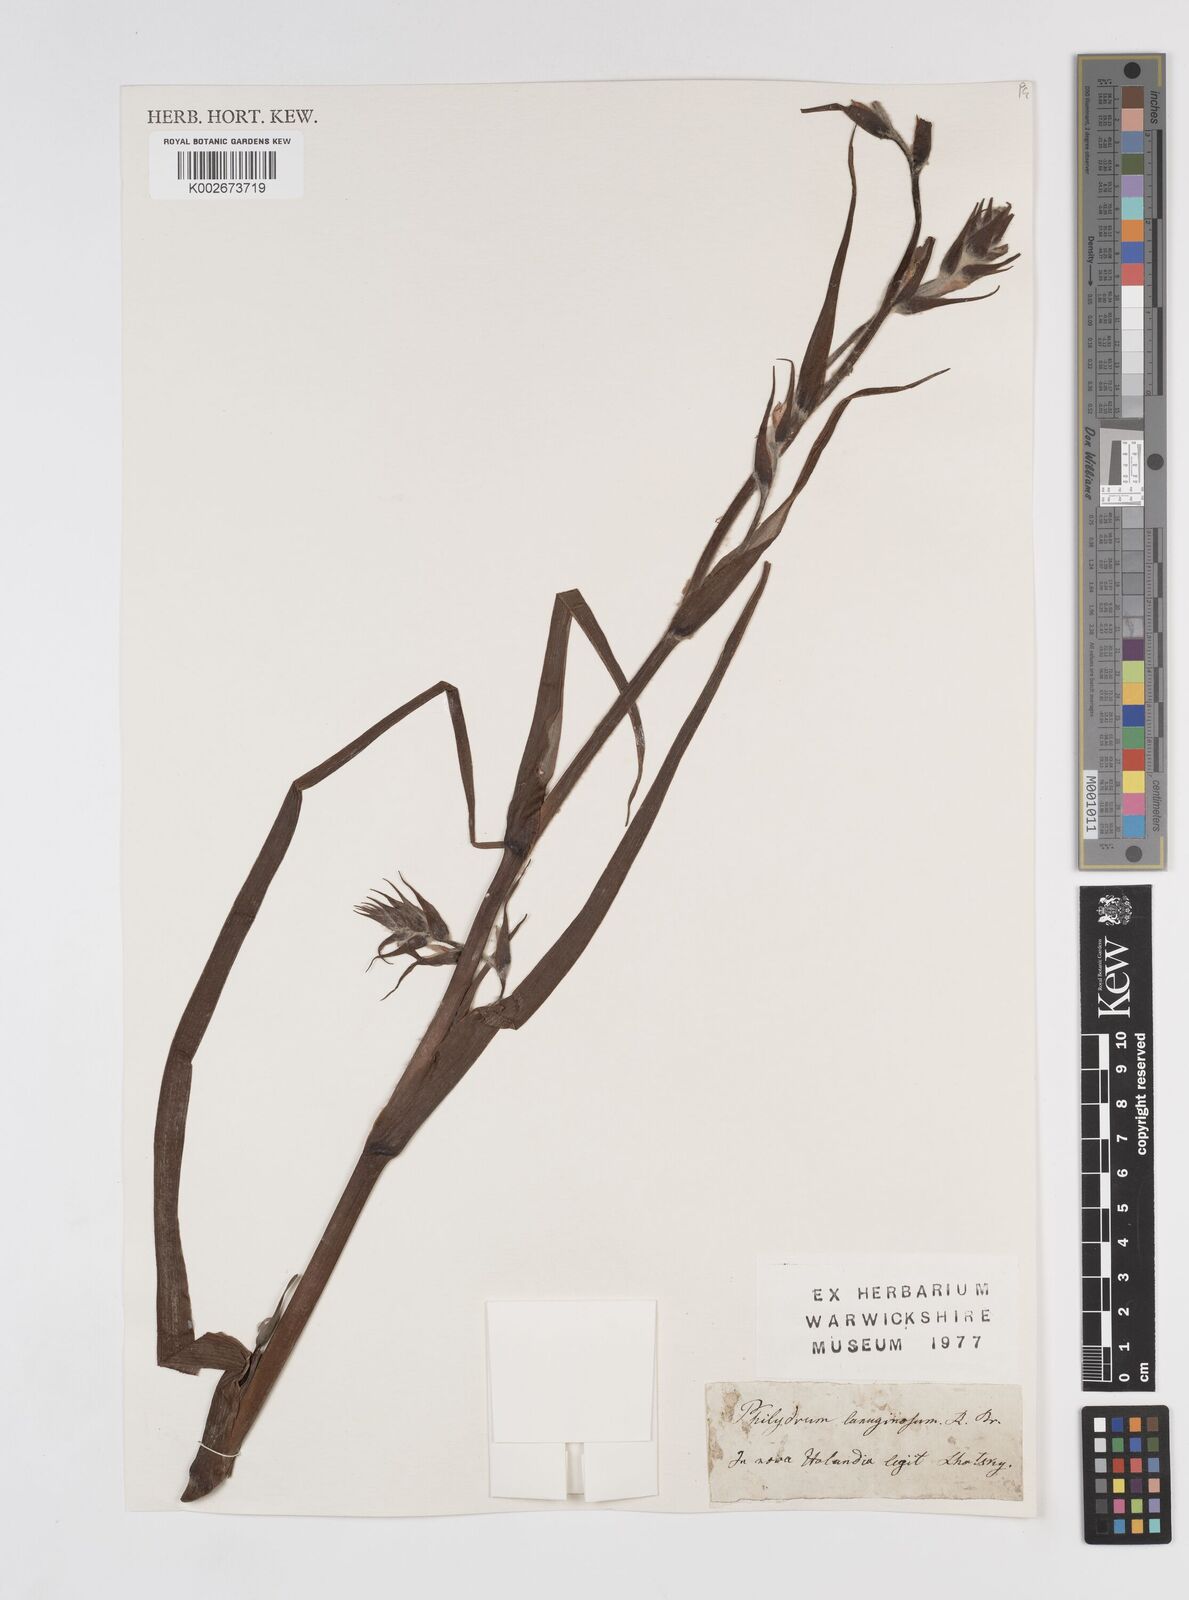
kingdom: Plantae
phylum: Tracheophyta
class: Liliopsida
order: Commelinales
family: Philydraceae
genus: Philydrum
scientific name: Philydrum lanuginosum
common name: Woolly frog's mouth
